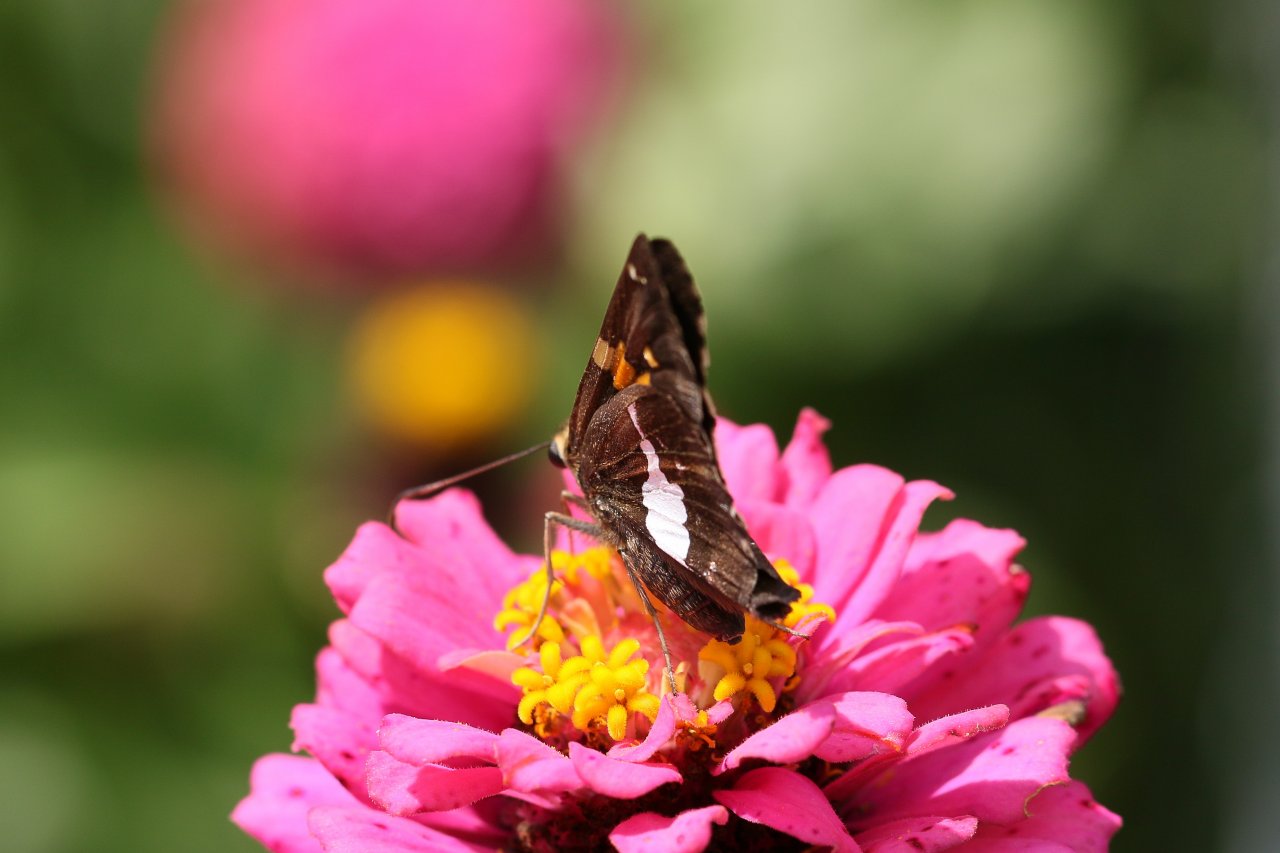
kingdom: Animalia
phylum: Arthropoda
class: Insecta
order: Lepidoptera
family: Hesperiidae
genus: Epargyreus
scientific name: Epargyreus clarus
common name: Silver-spotted Skipper
